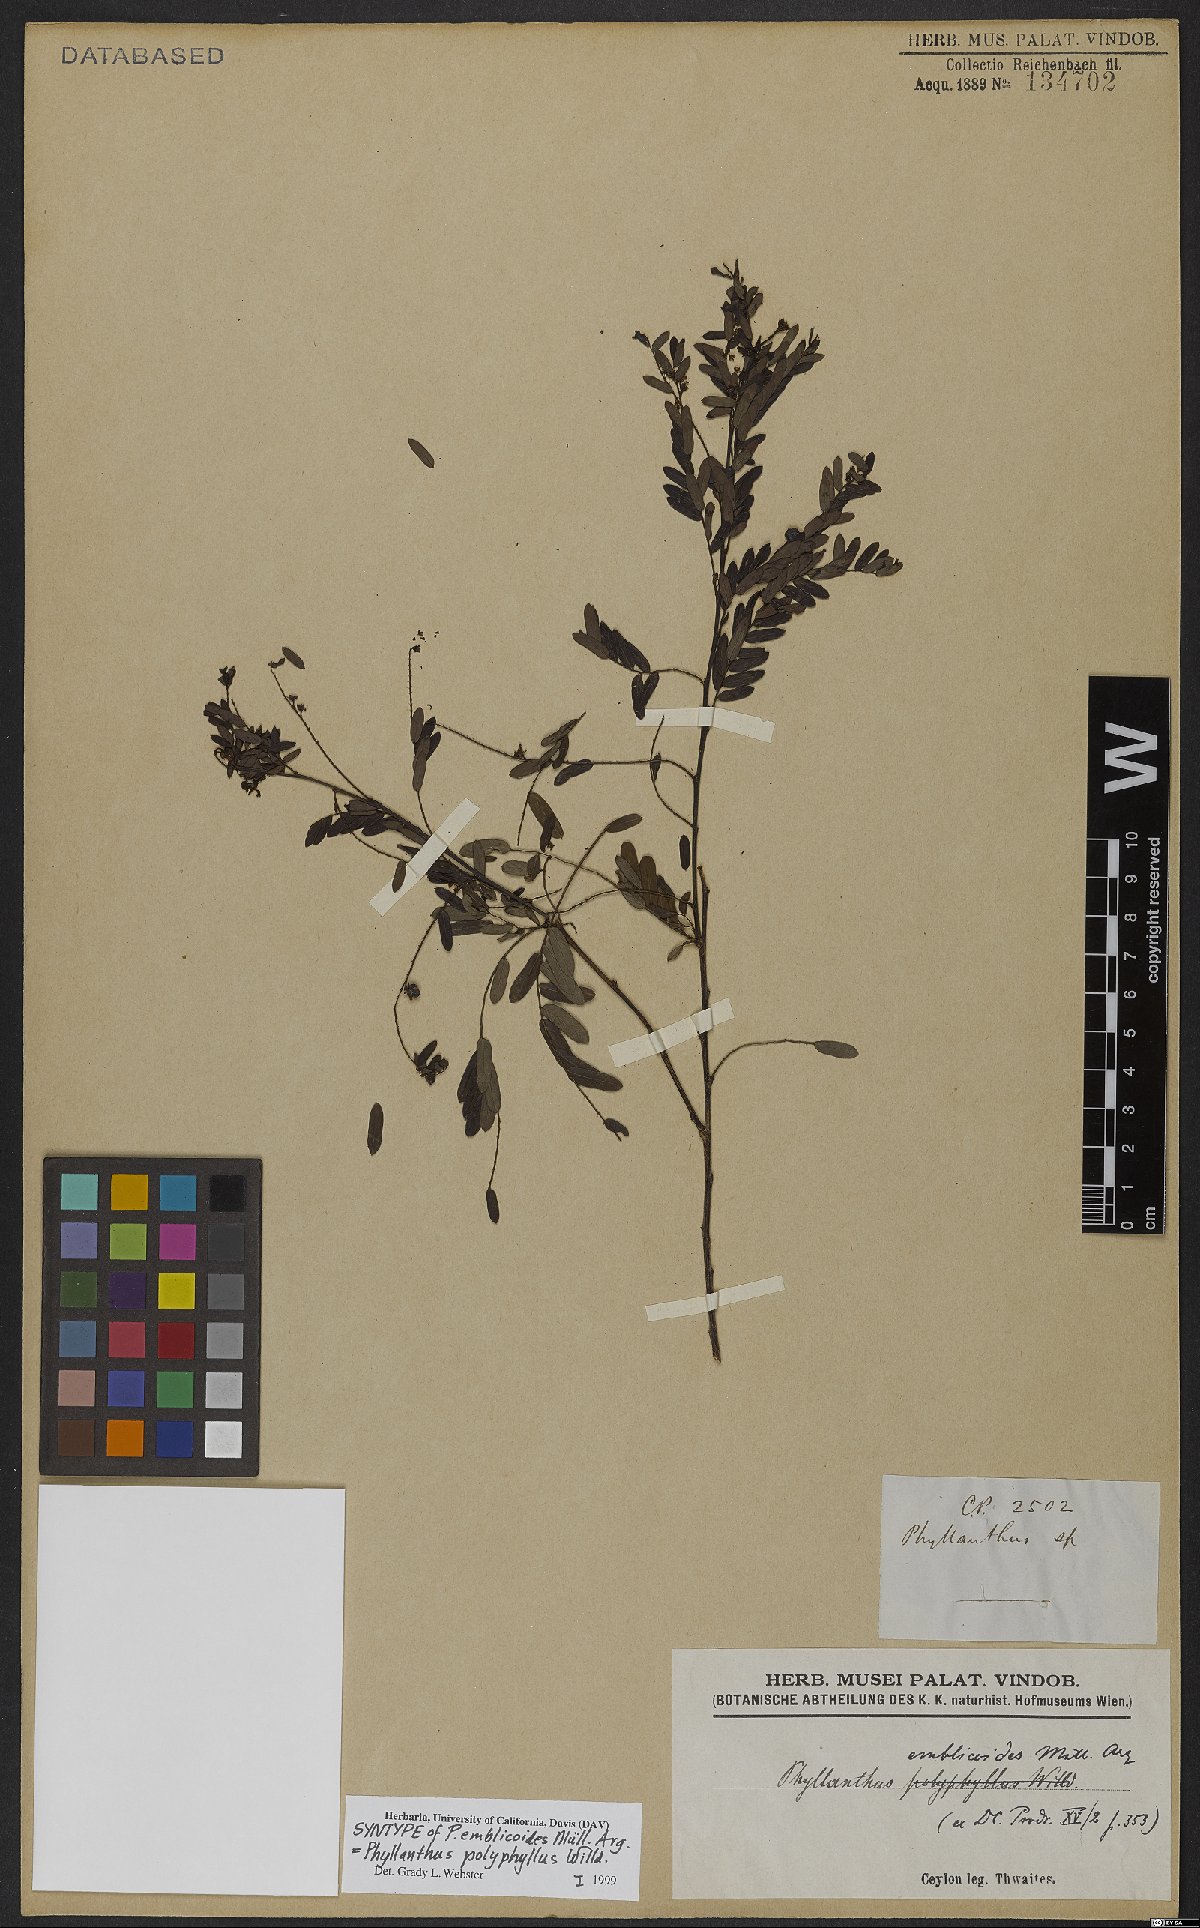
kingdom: Plantae
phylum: Tracheophyta
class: Magnoliopsida
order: Malpighiales
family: Phyllanthaceae
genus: Phyllanthus
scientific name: Phyllanthus racemosus
